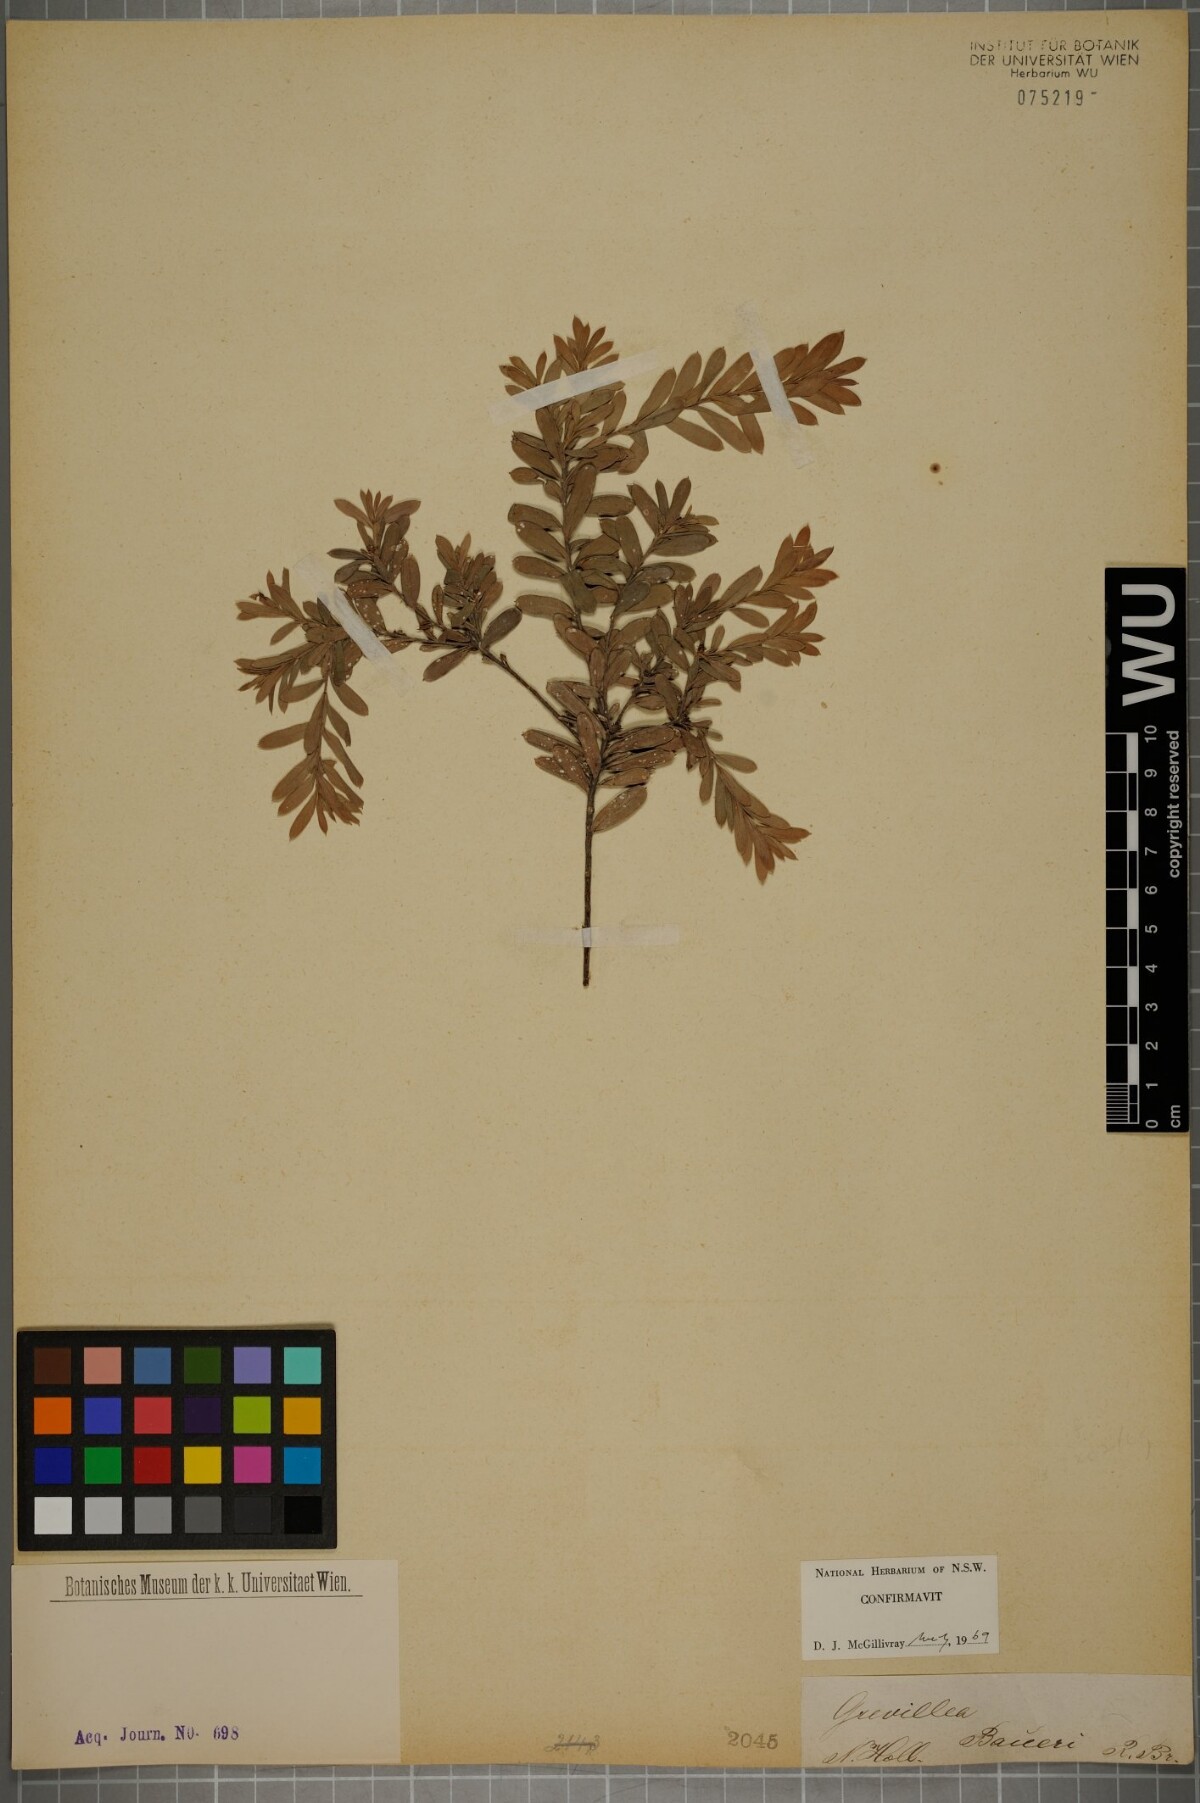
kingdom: Plantae
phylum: Tracheophyta
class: Magnoliopsida
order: Proteales
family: Proteaceae
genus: Grevillea
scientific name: Grevillea baueri
